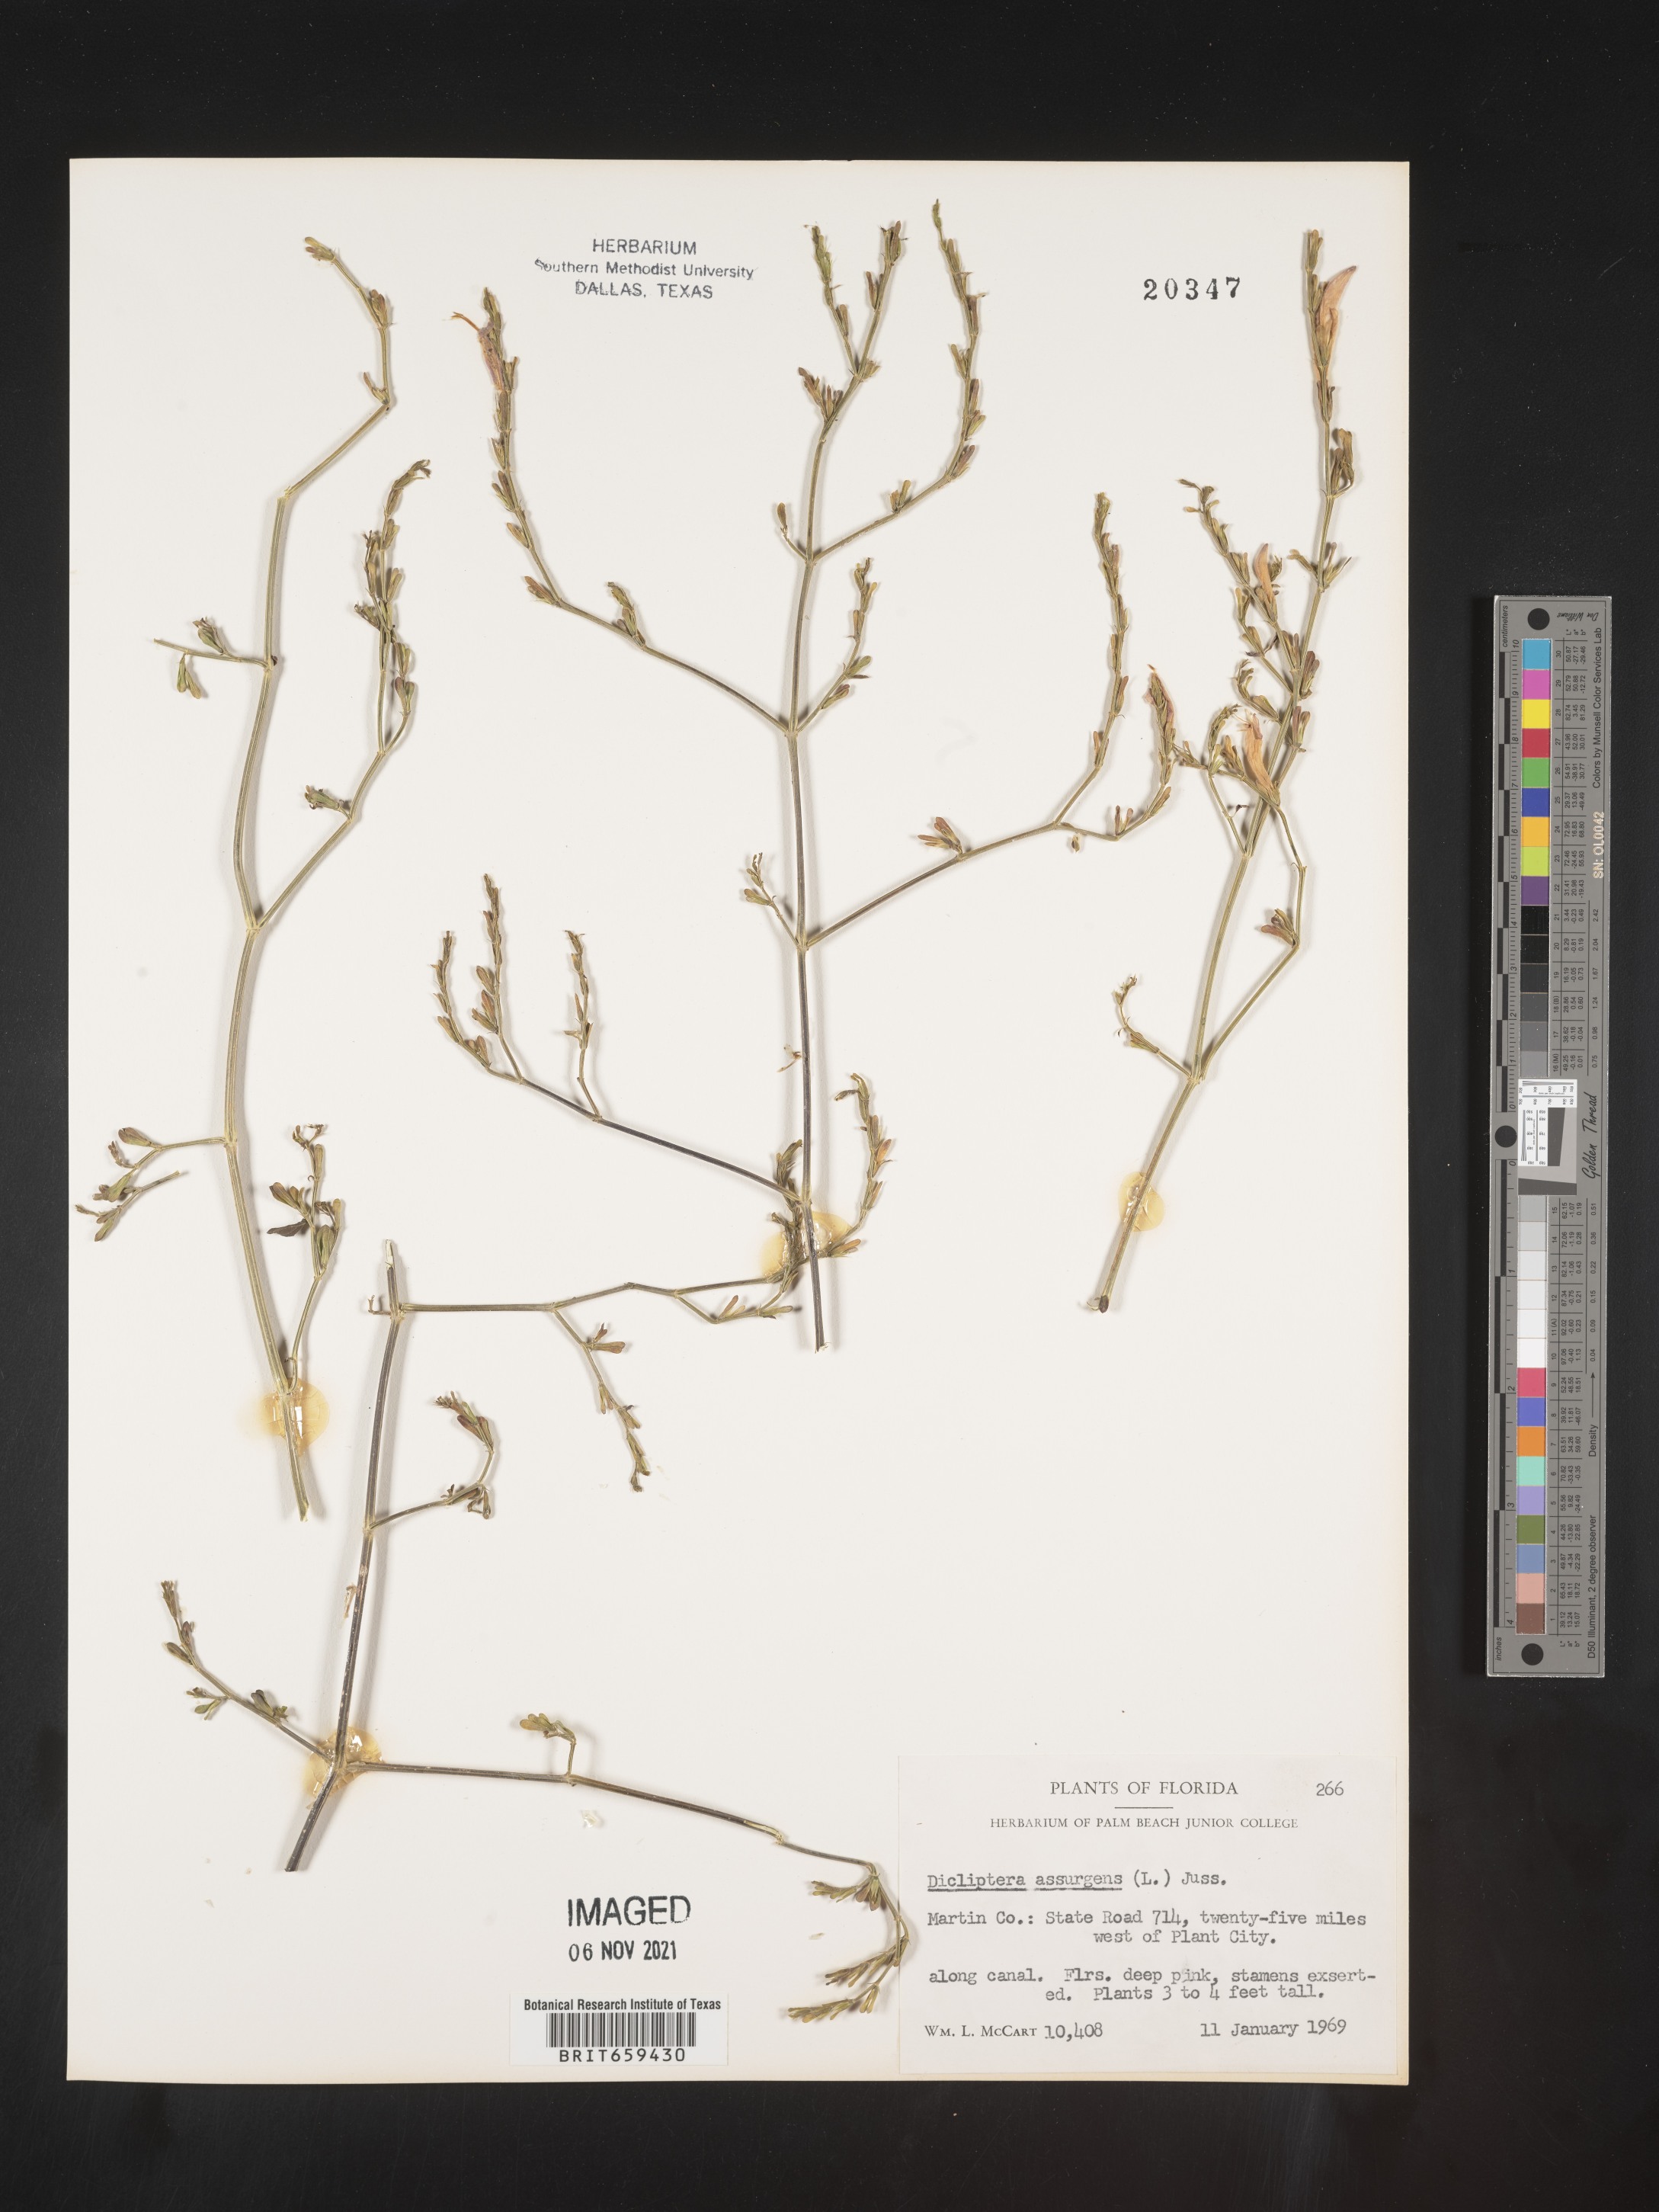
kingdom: Plantae
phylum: Tracheophyta
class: Magnoliopsida
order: Lamiales
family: Acanthaceae
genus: Dicliptera
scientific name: Dicliptera sexangularis
